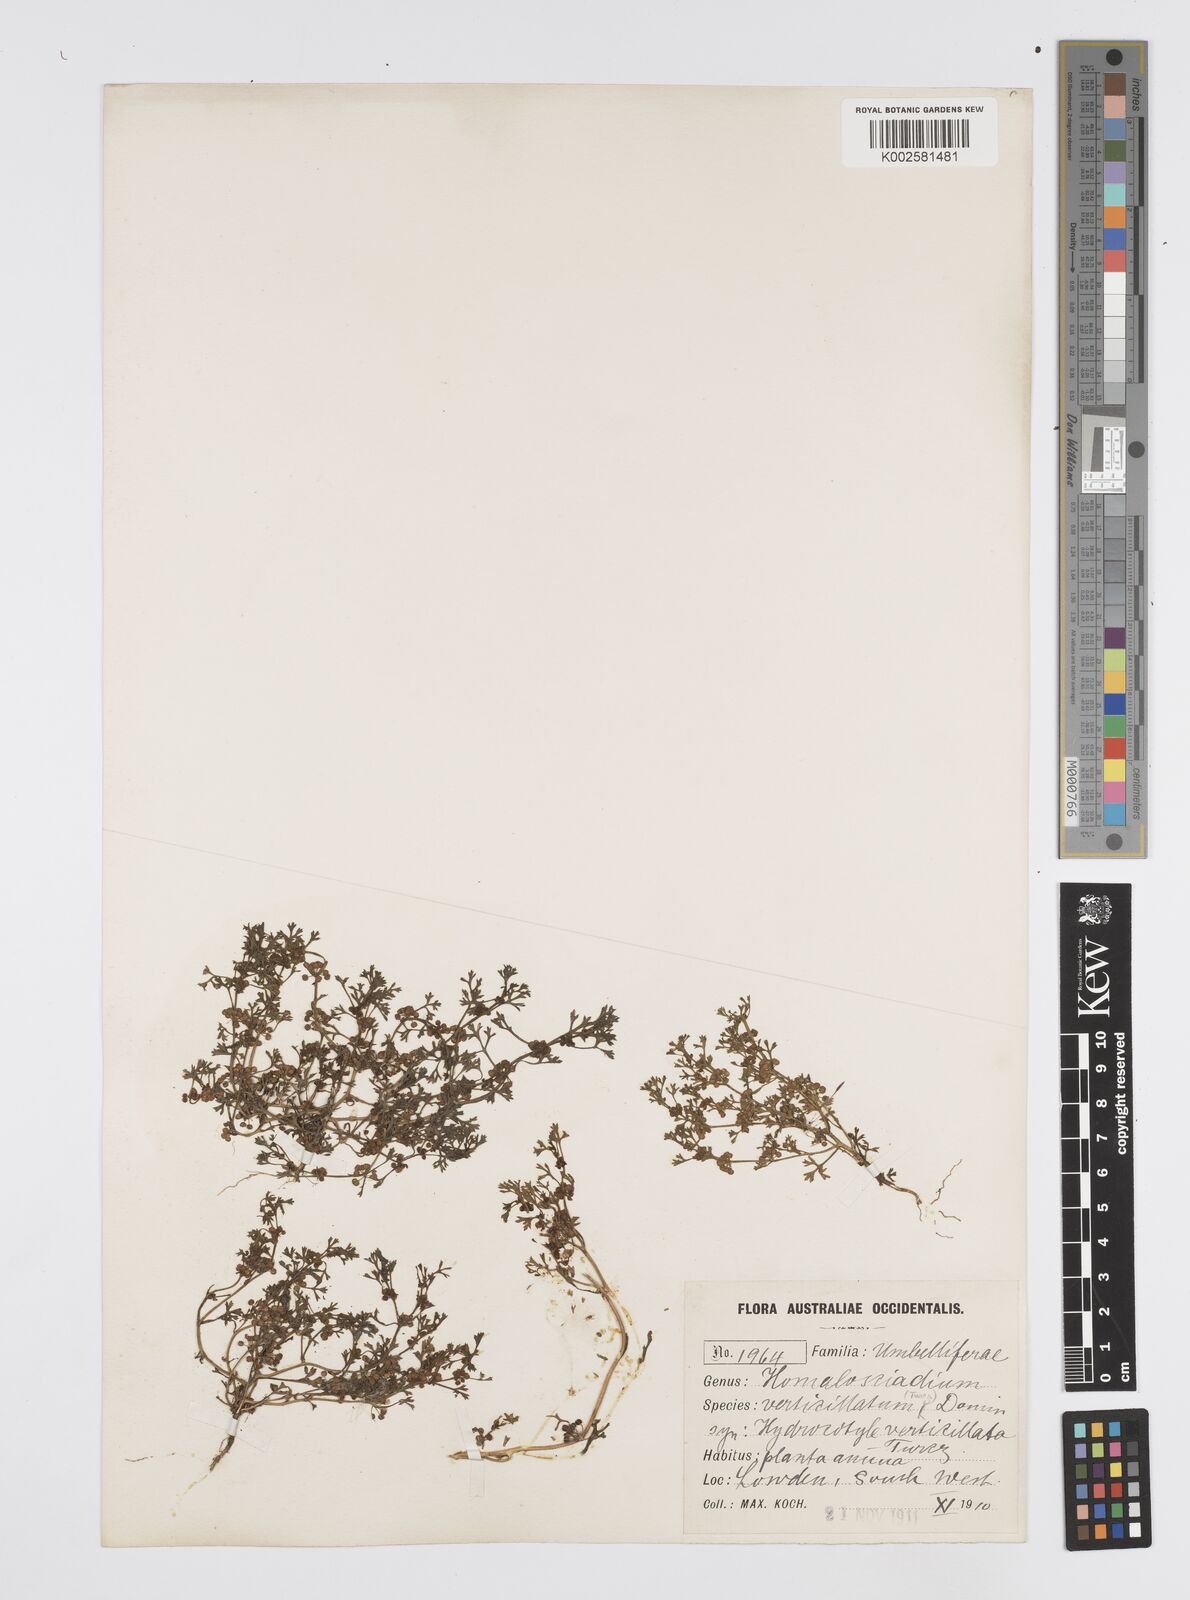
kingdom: Plantae
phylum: Tracheophyta
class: Magnoliopsida
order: Apiales
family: Apiaceae
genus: Homalosciadium
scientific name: Homalosciadium homalocarpum
